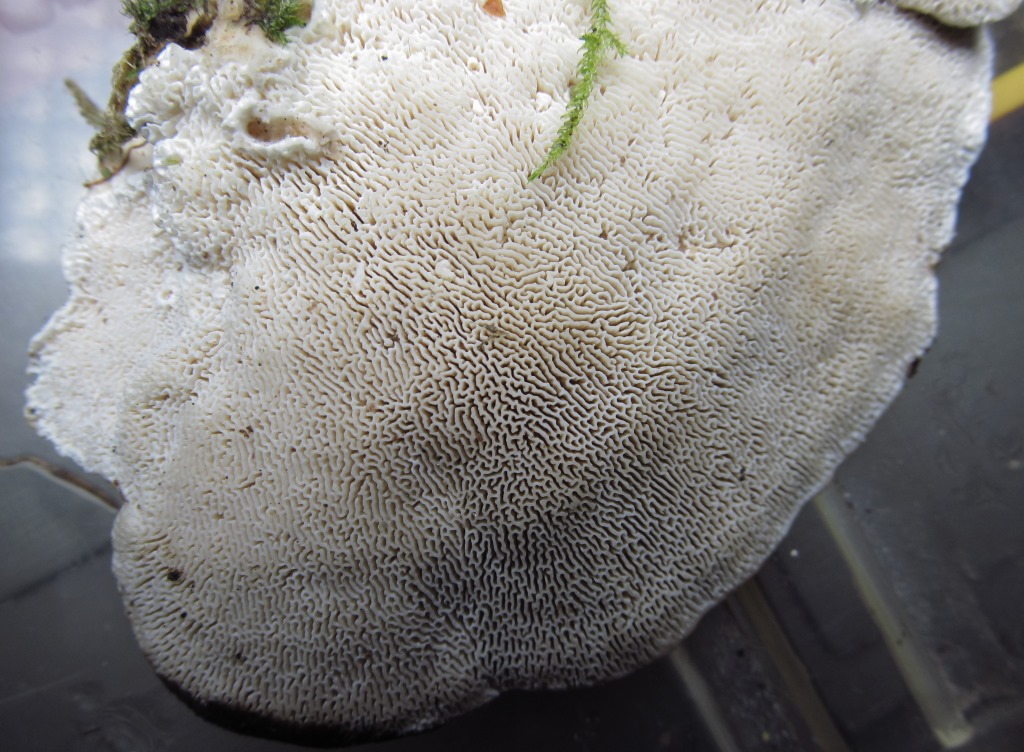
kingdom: Fungi
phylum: Basidiomycota
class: Agaricomycetes
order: Polyporales
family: Cerrenaceae
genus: Cerrena
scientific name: Cerrena unicolor
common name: ensfarvet læderporesvamp
